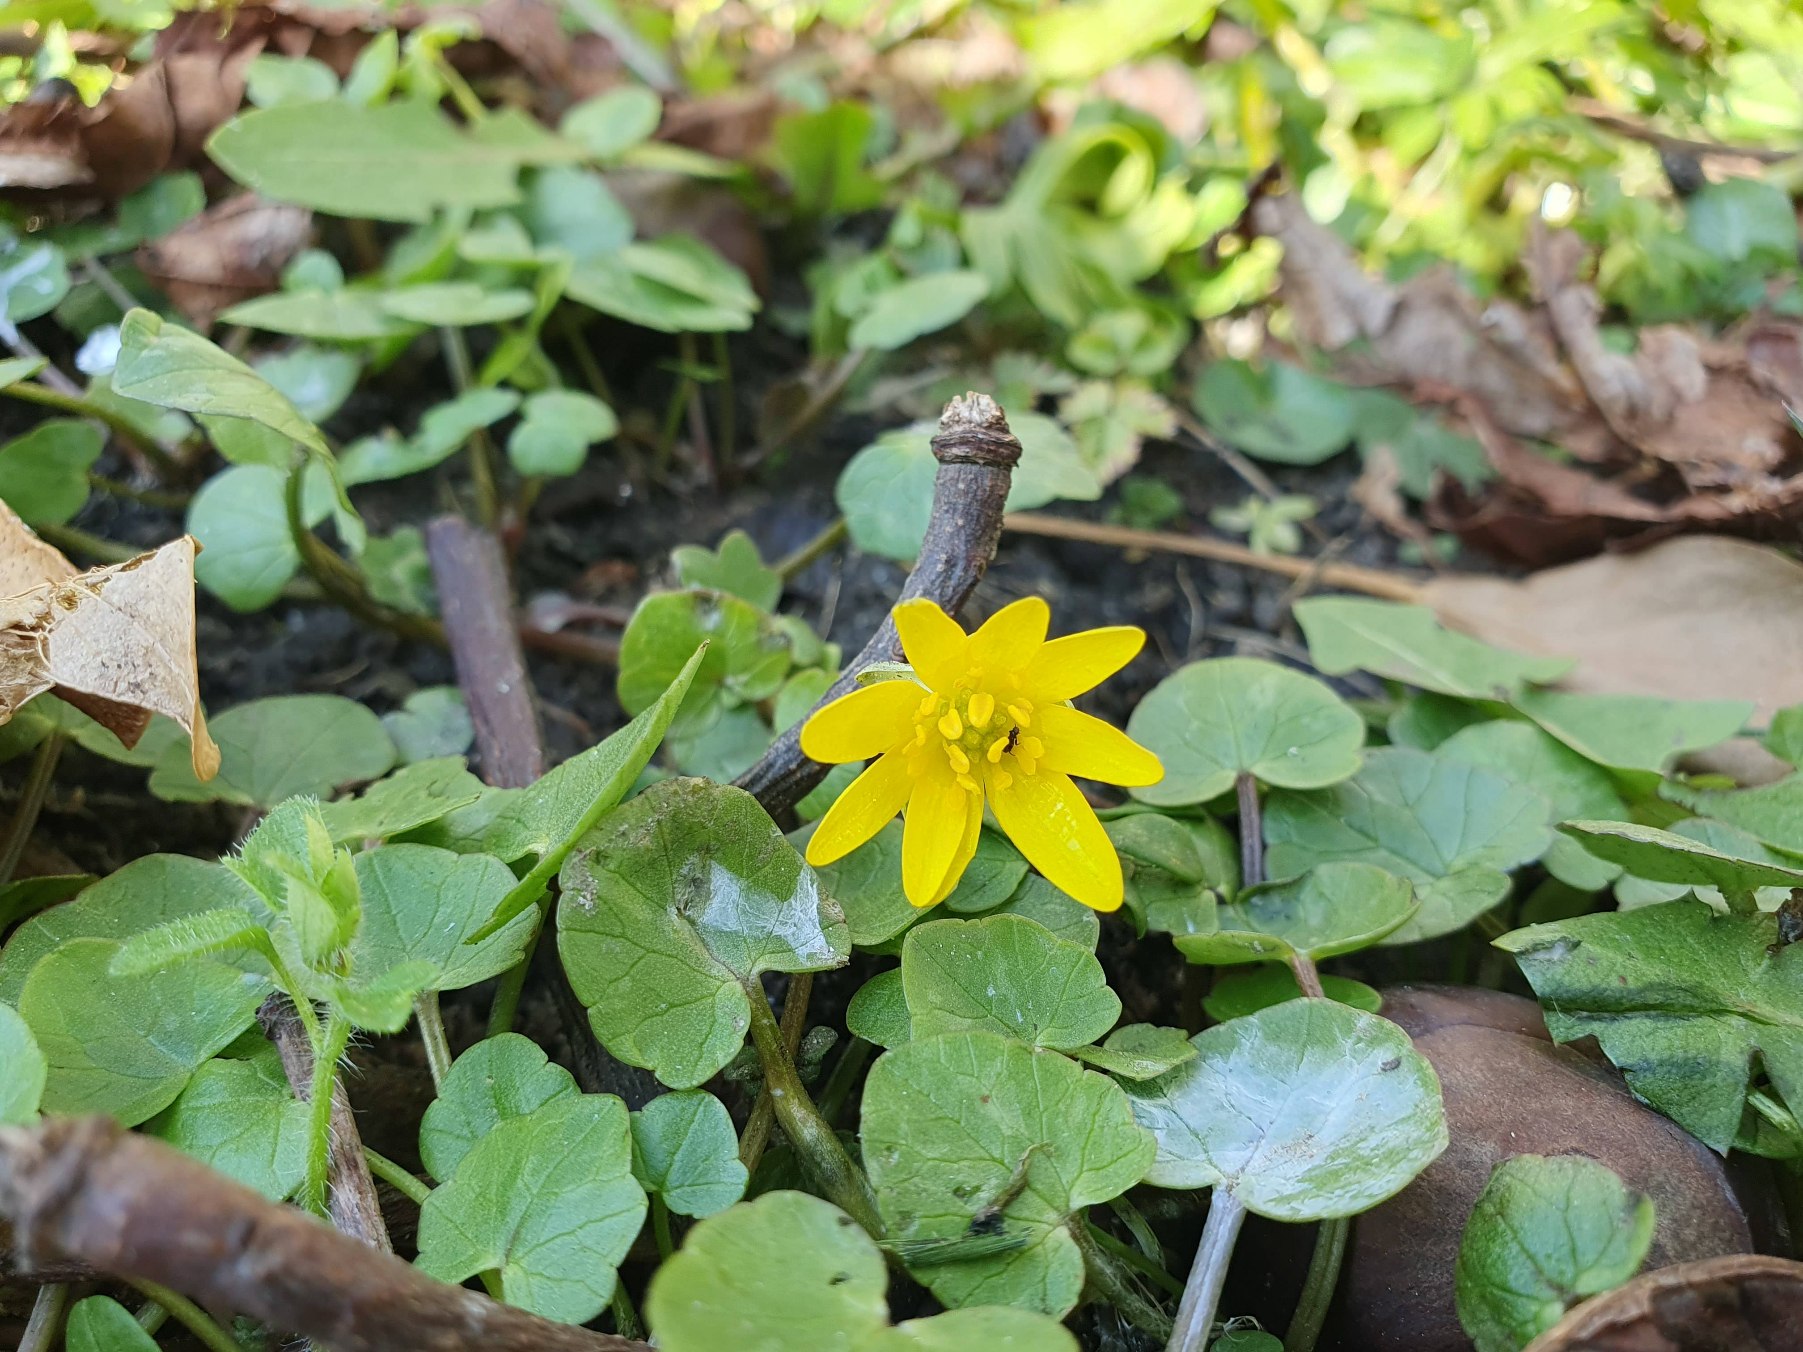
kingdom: Plantae
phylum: Tracheophyta
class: Magnoliopsida
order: Ranunculales
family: Ranunculaceae
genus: Ficaria
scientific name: Ficaria verna
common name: Vorterod
